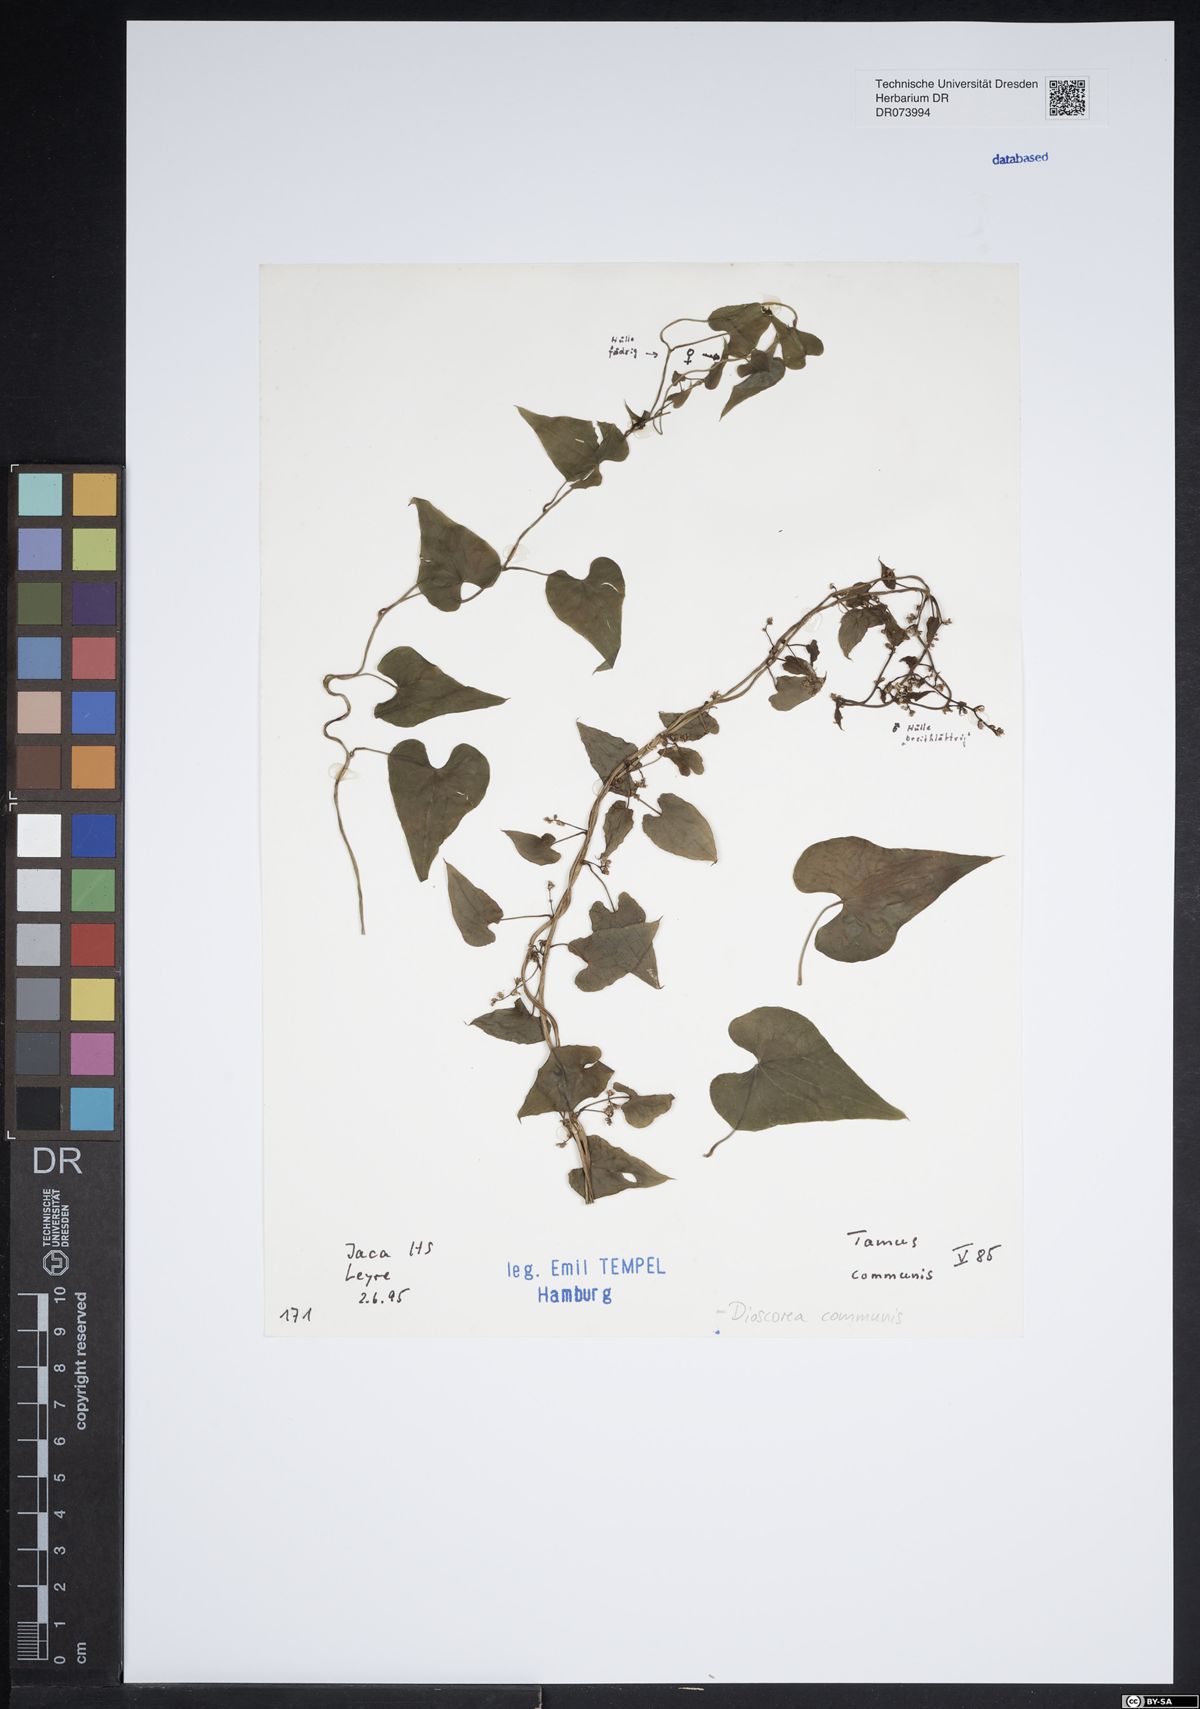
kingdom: Plantae
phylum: Tracheophyta
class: Liliopsida
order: Dioscoreales
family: Dioscoreaceae
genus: Dioscorea
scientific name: Dioscorea communis
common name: Black-bindweed
